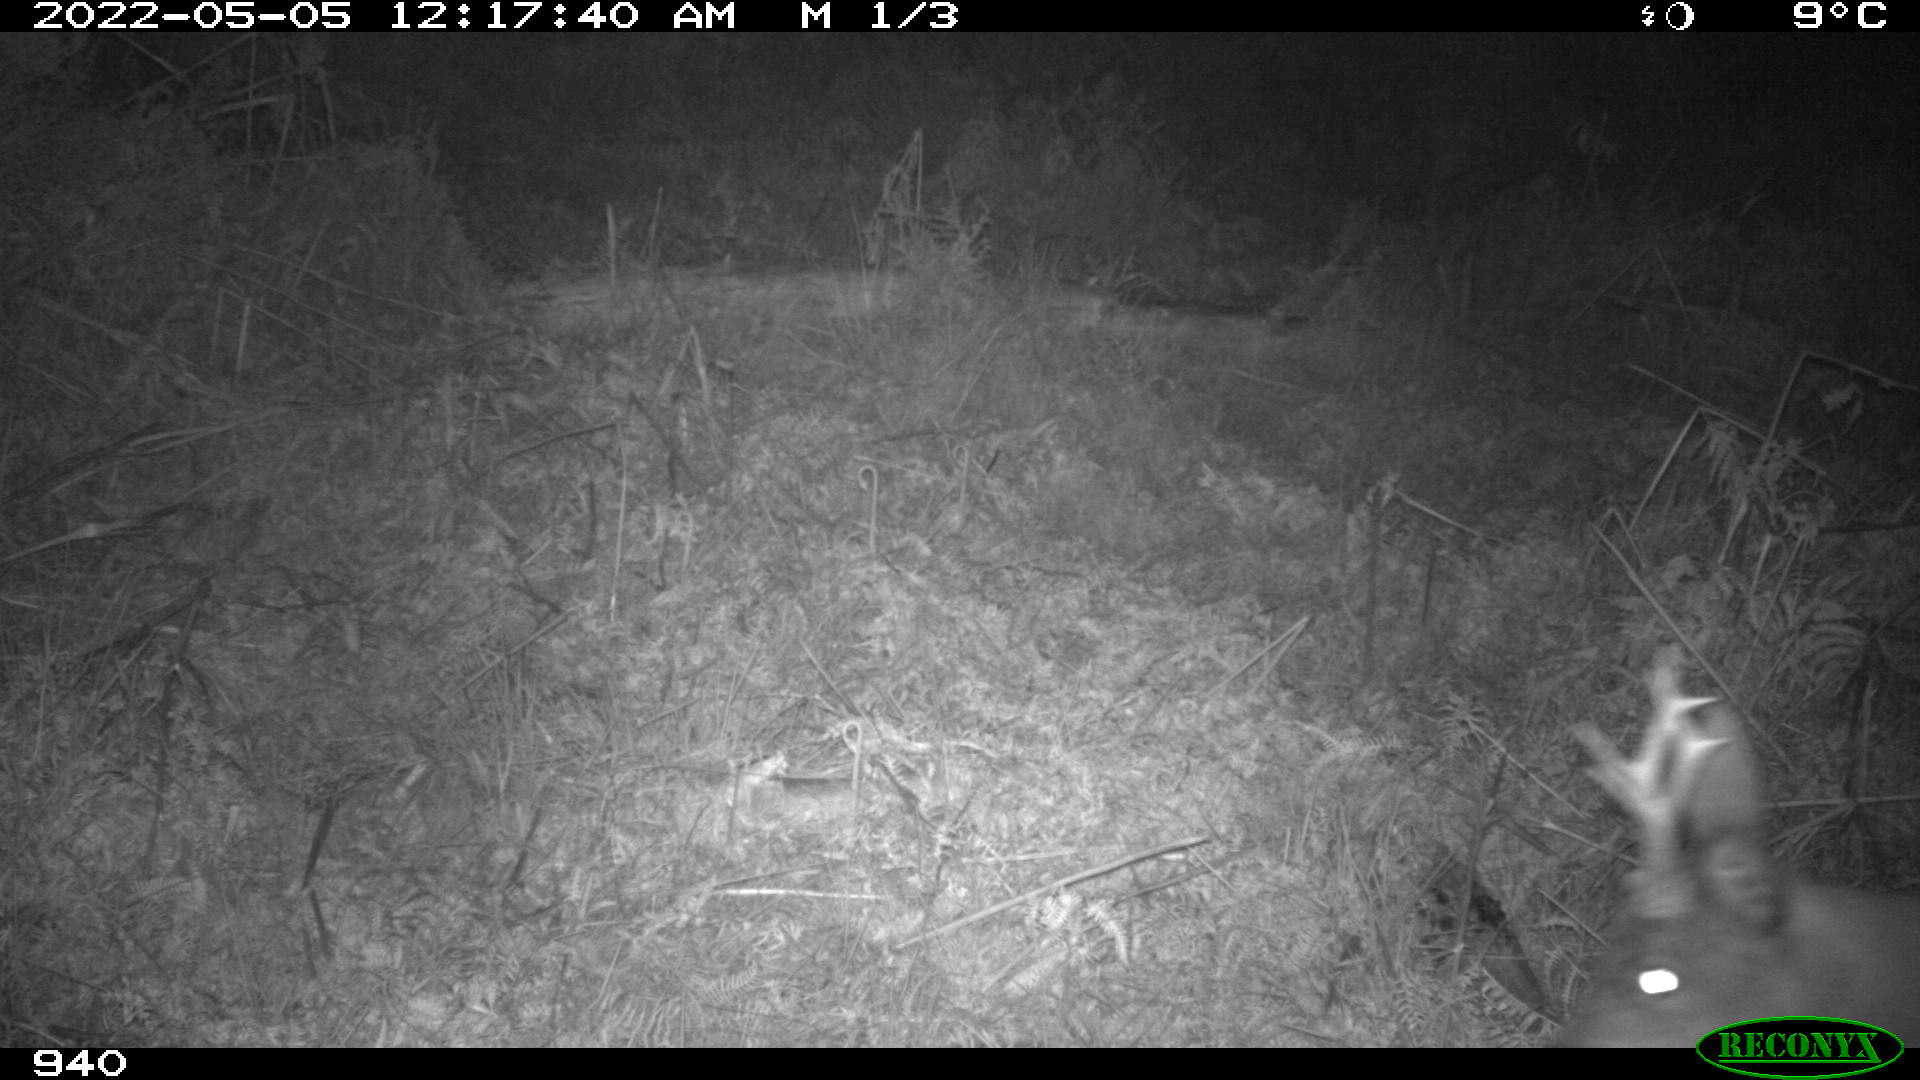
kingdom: Animalia
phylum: Chordata
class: Mammalia
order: Artiodactyla
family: Cervidae
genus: Capreolus
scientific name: Capreolus capreolus
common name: Western roe deer
